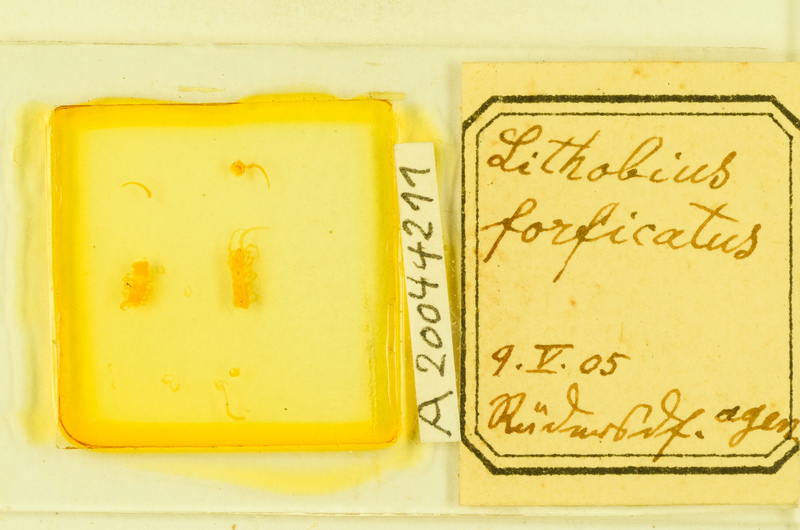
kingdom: Animalia
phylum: Arthropoda
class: Chilopoda
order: Lithobiomorpha
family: Lithobiidae
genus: Lithobius
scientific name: Lithobius forficatus
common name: Centipede
